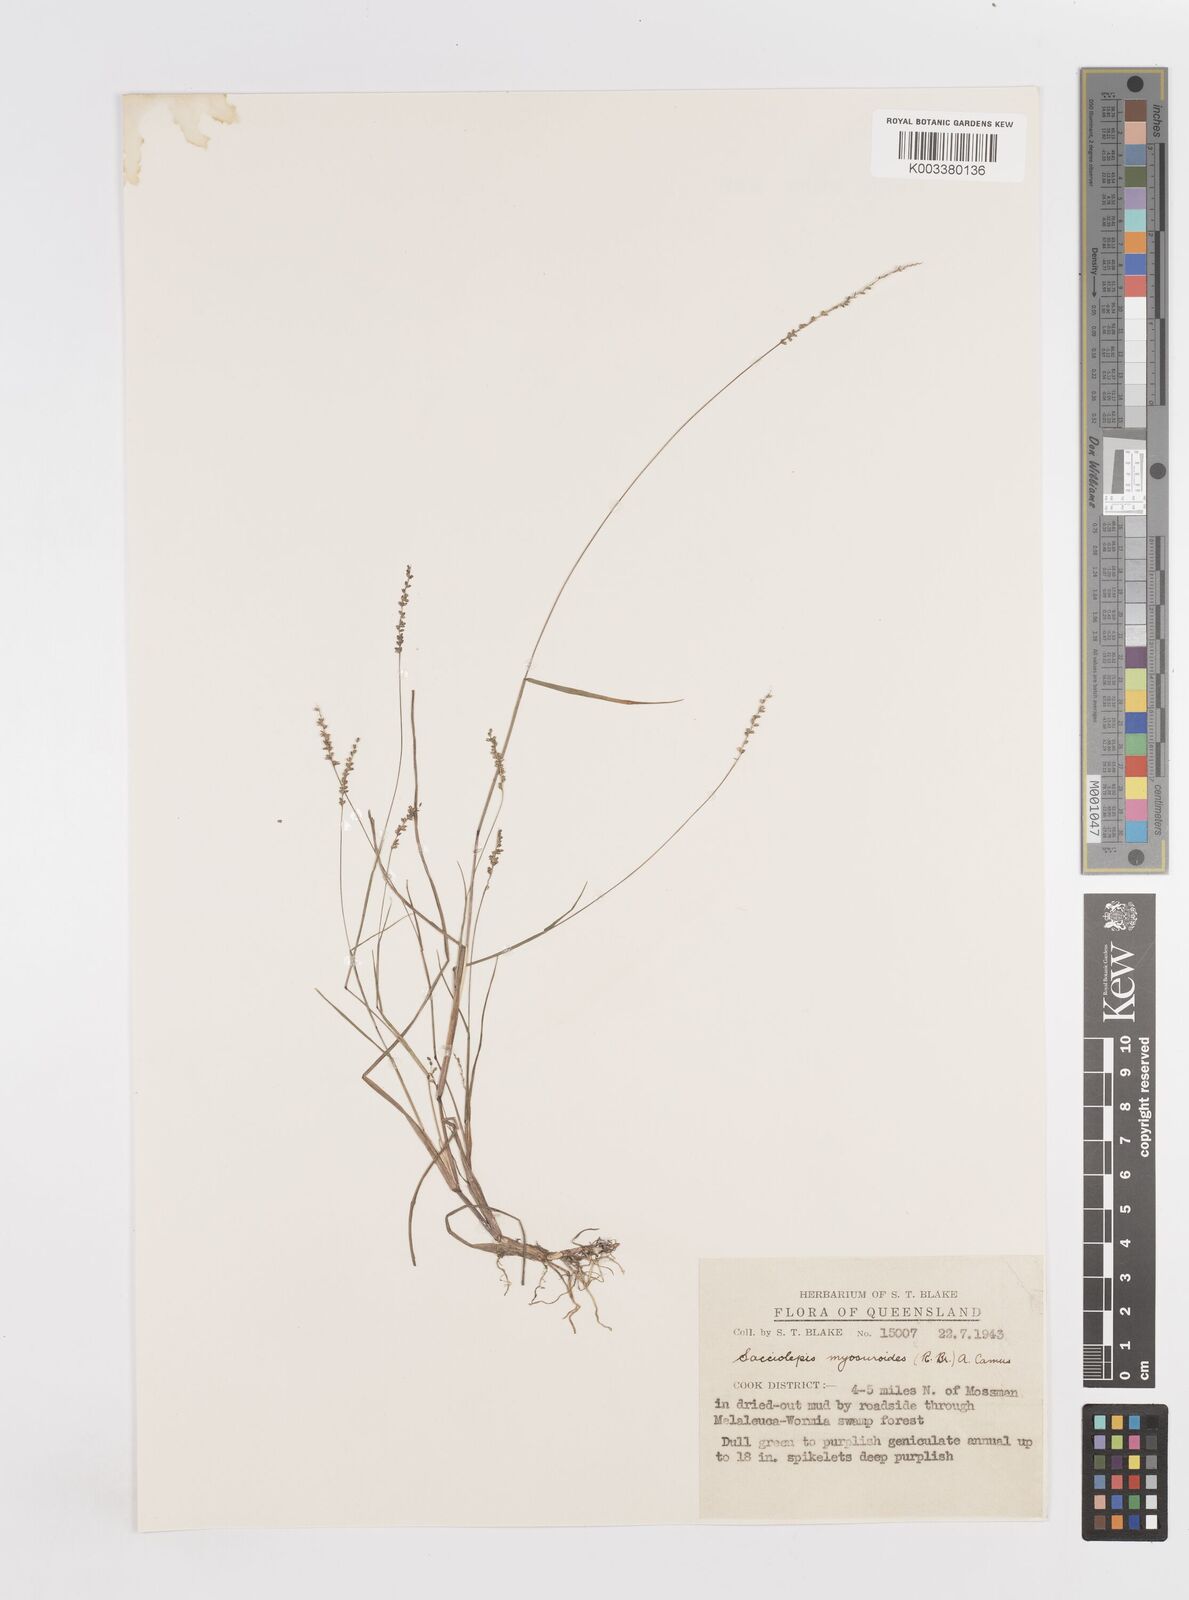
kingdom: Plantae
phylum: Tracheophyta
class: Liliopsida
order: Poales
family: Poaceae
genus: Sacciolepis
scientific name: Sacciolepis myosuroides
